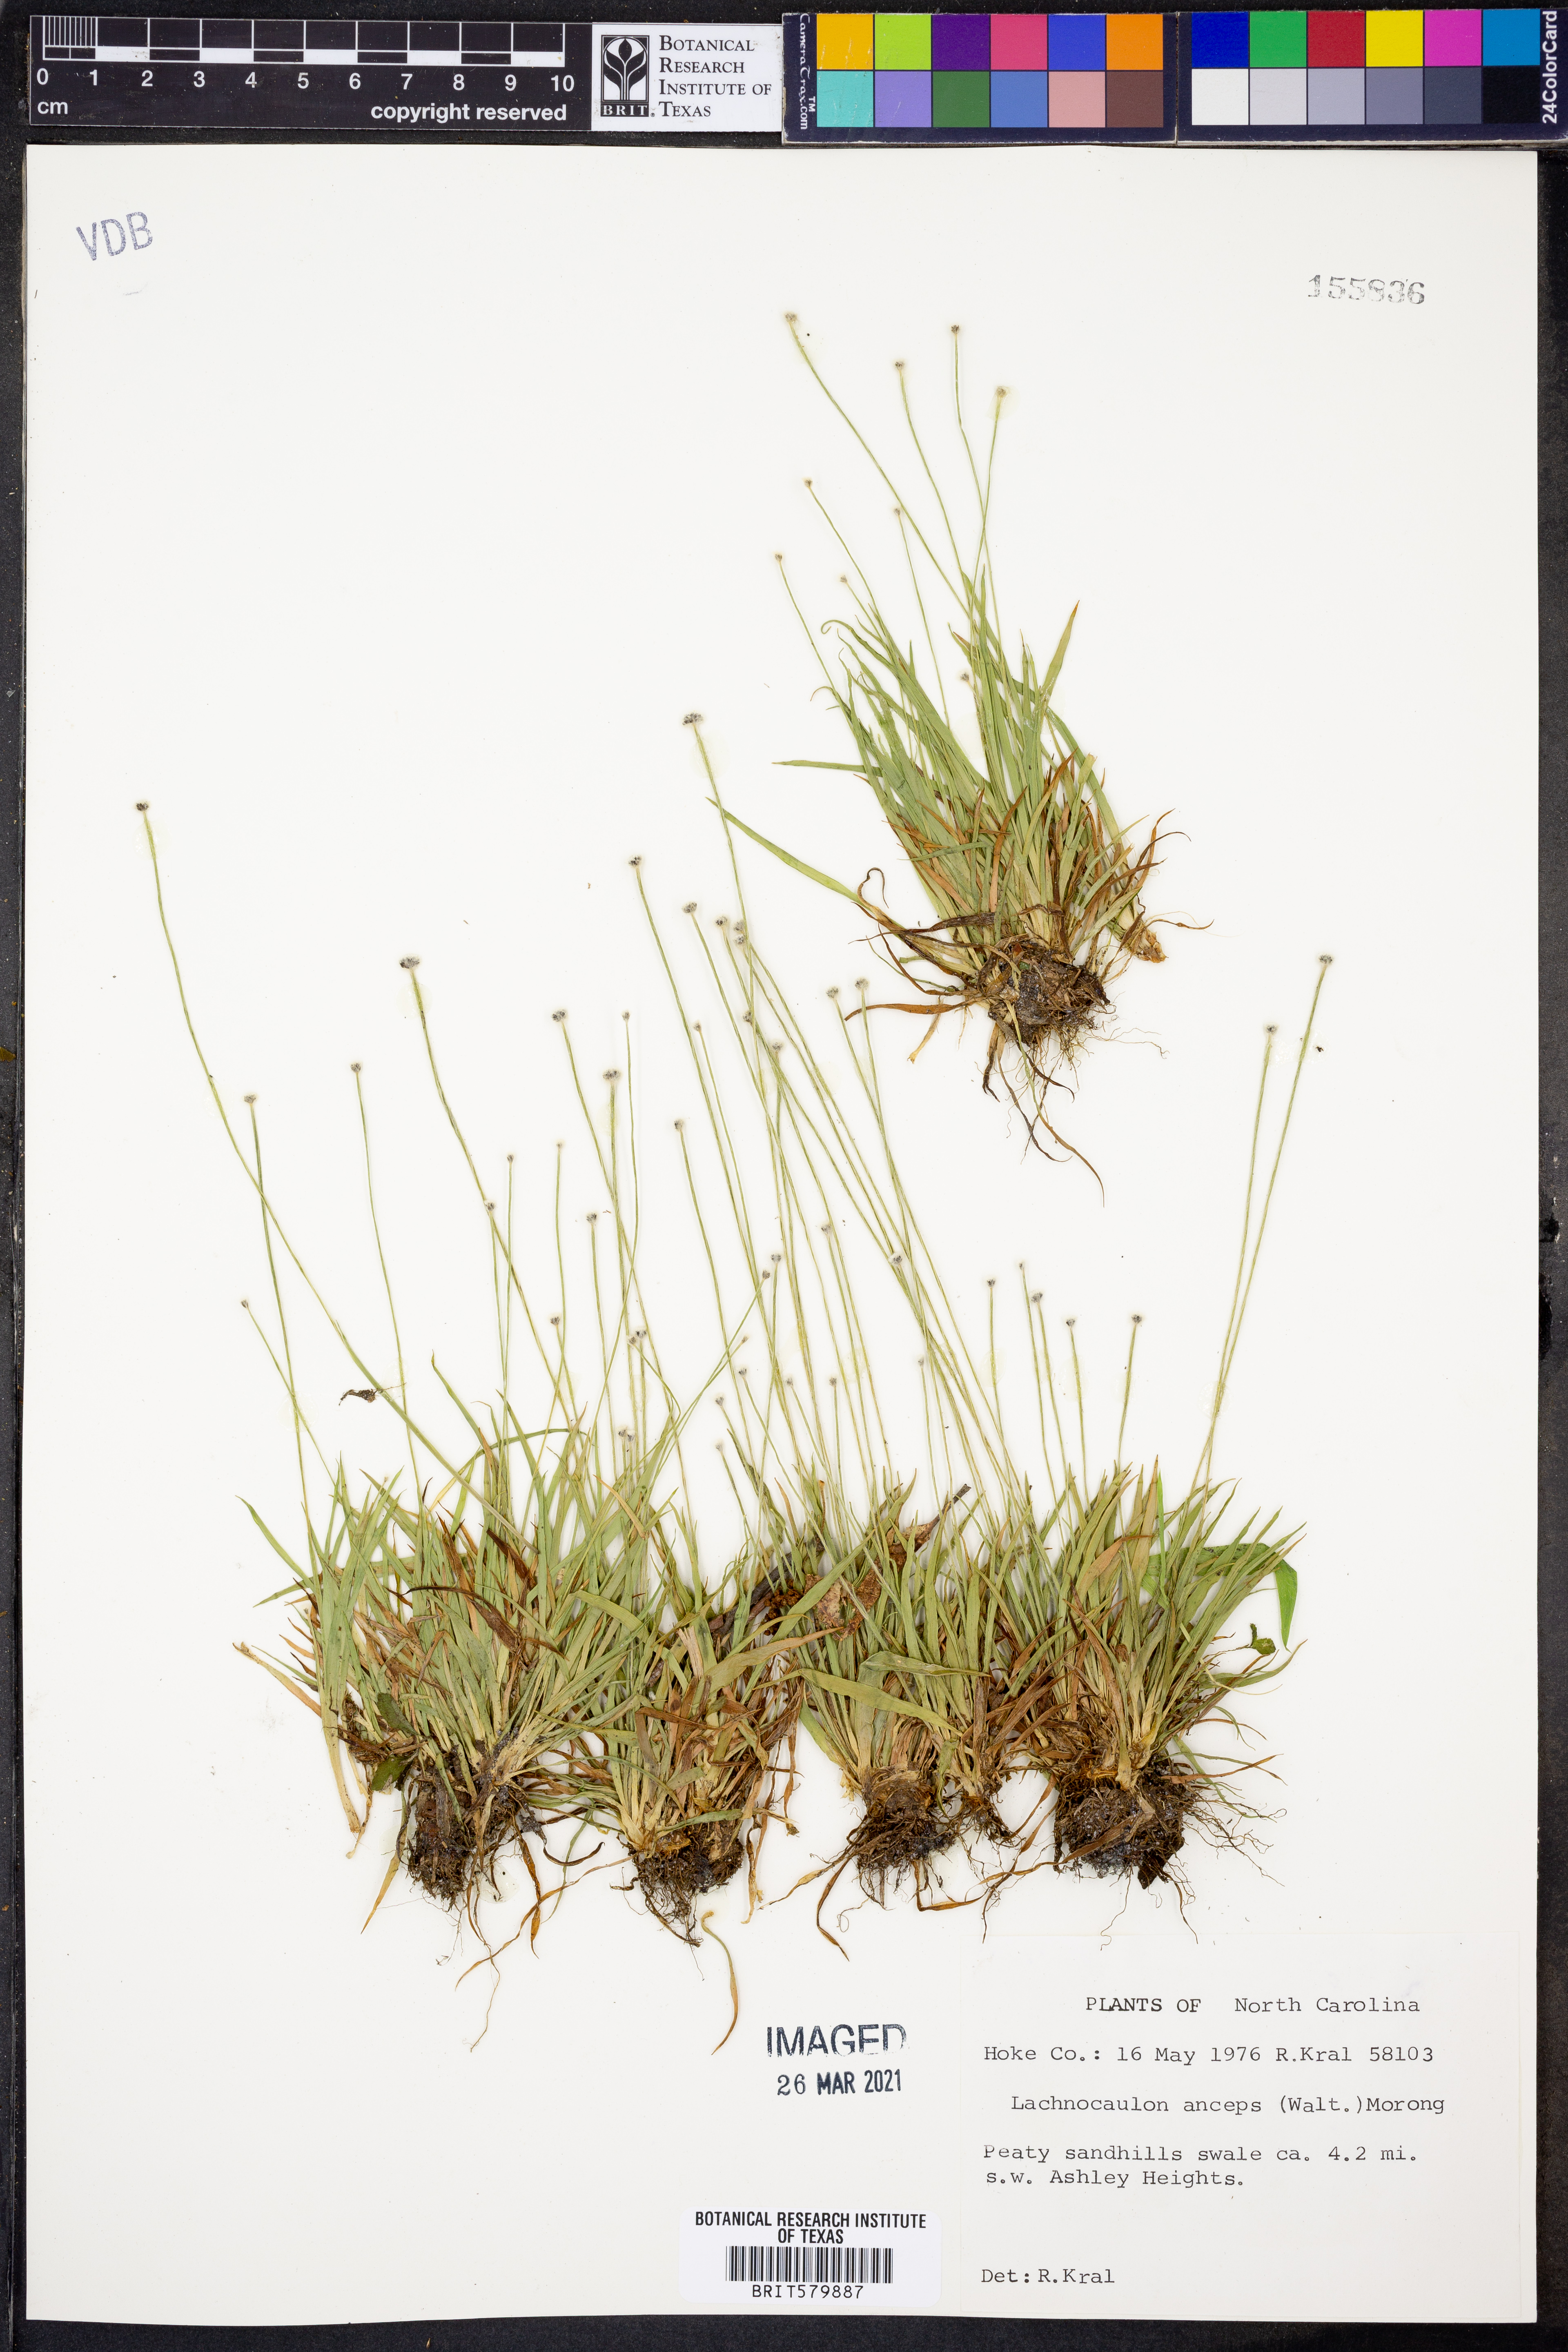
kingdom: Plantae
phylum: Tracheophyta
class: Liliopsida
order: Poales
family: Eriocaulaceae
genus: Paepalanthus
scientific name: Paepalanthus anceps
